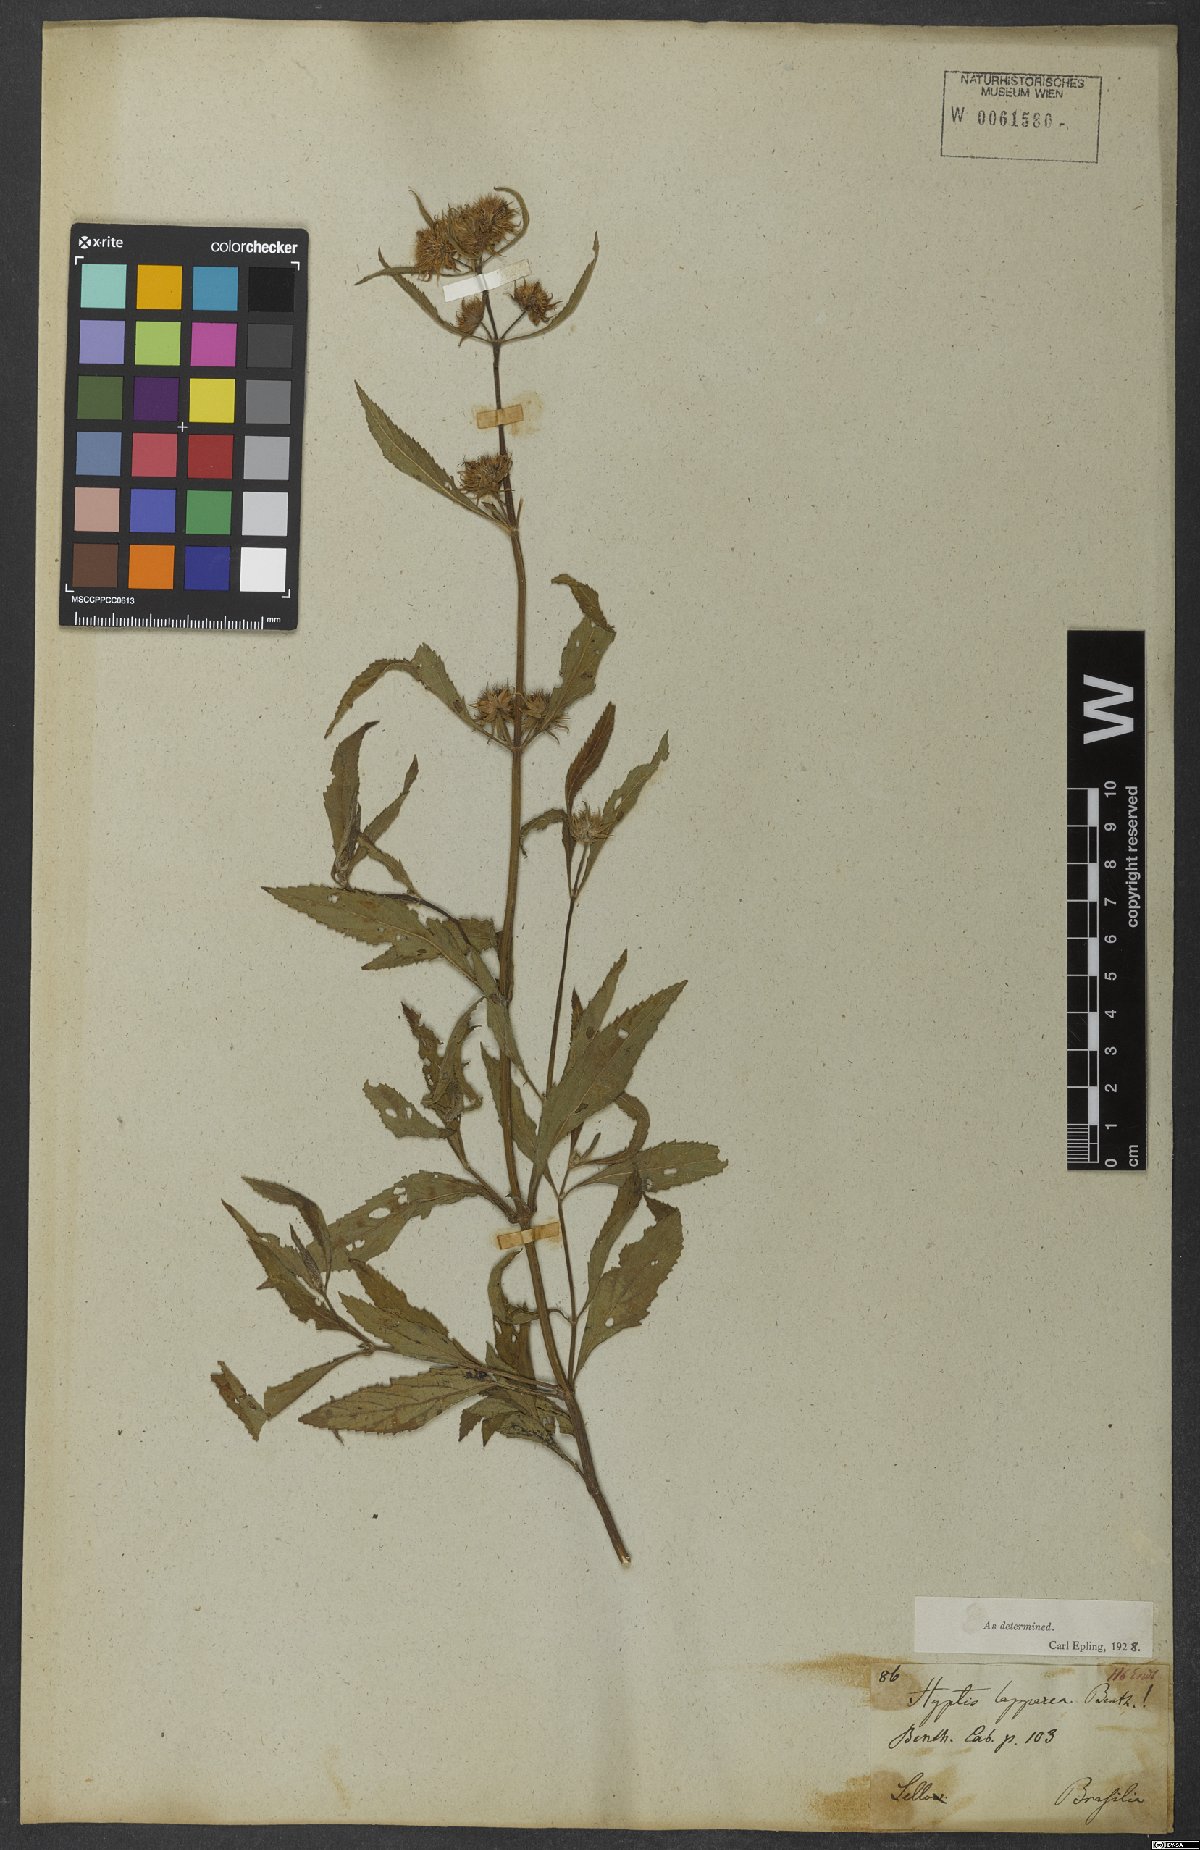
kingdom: Plantae
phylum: Tracheophyta
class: Magnoliopsida
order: Lamiales
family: Lamiaceae
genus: Hyptis
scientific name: Hyptis lappacea
